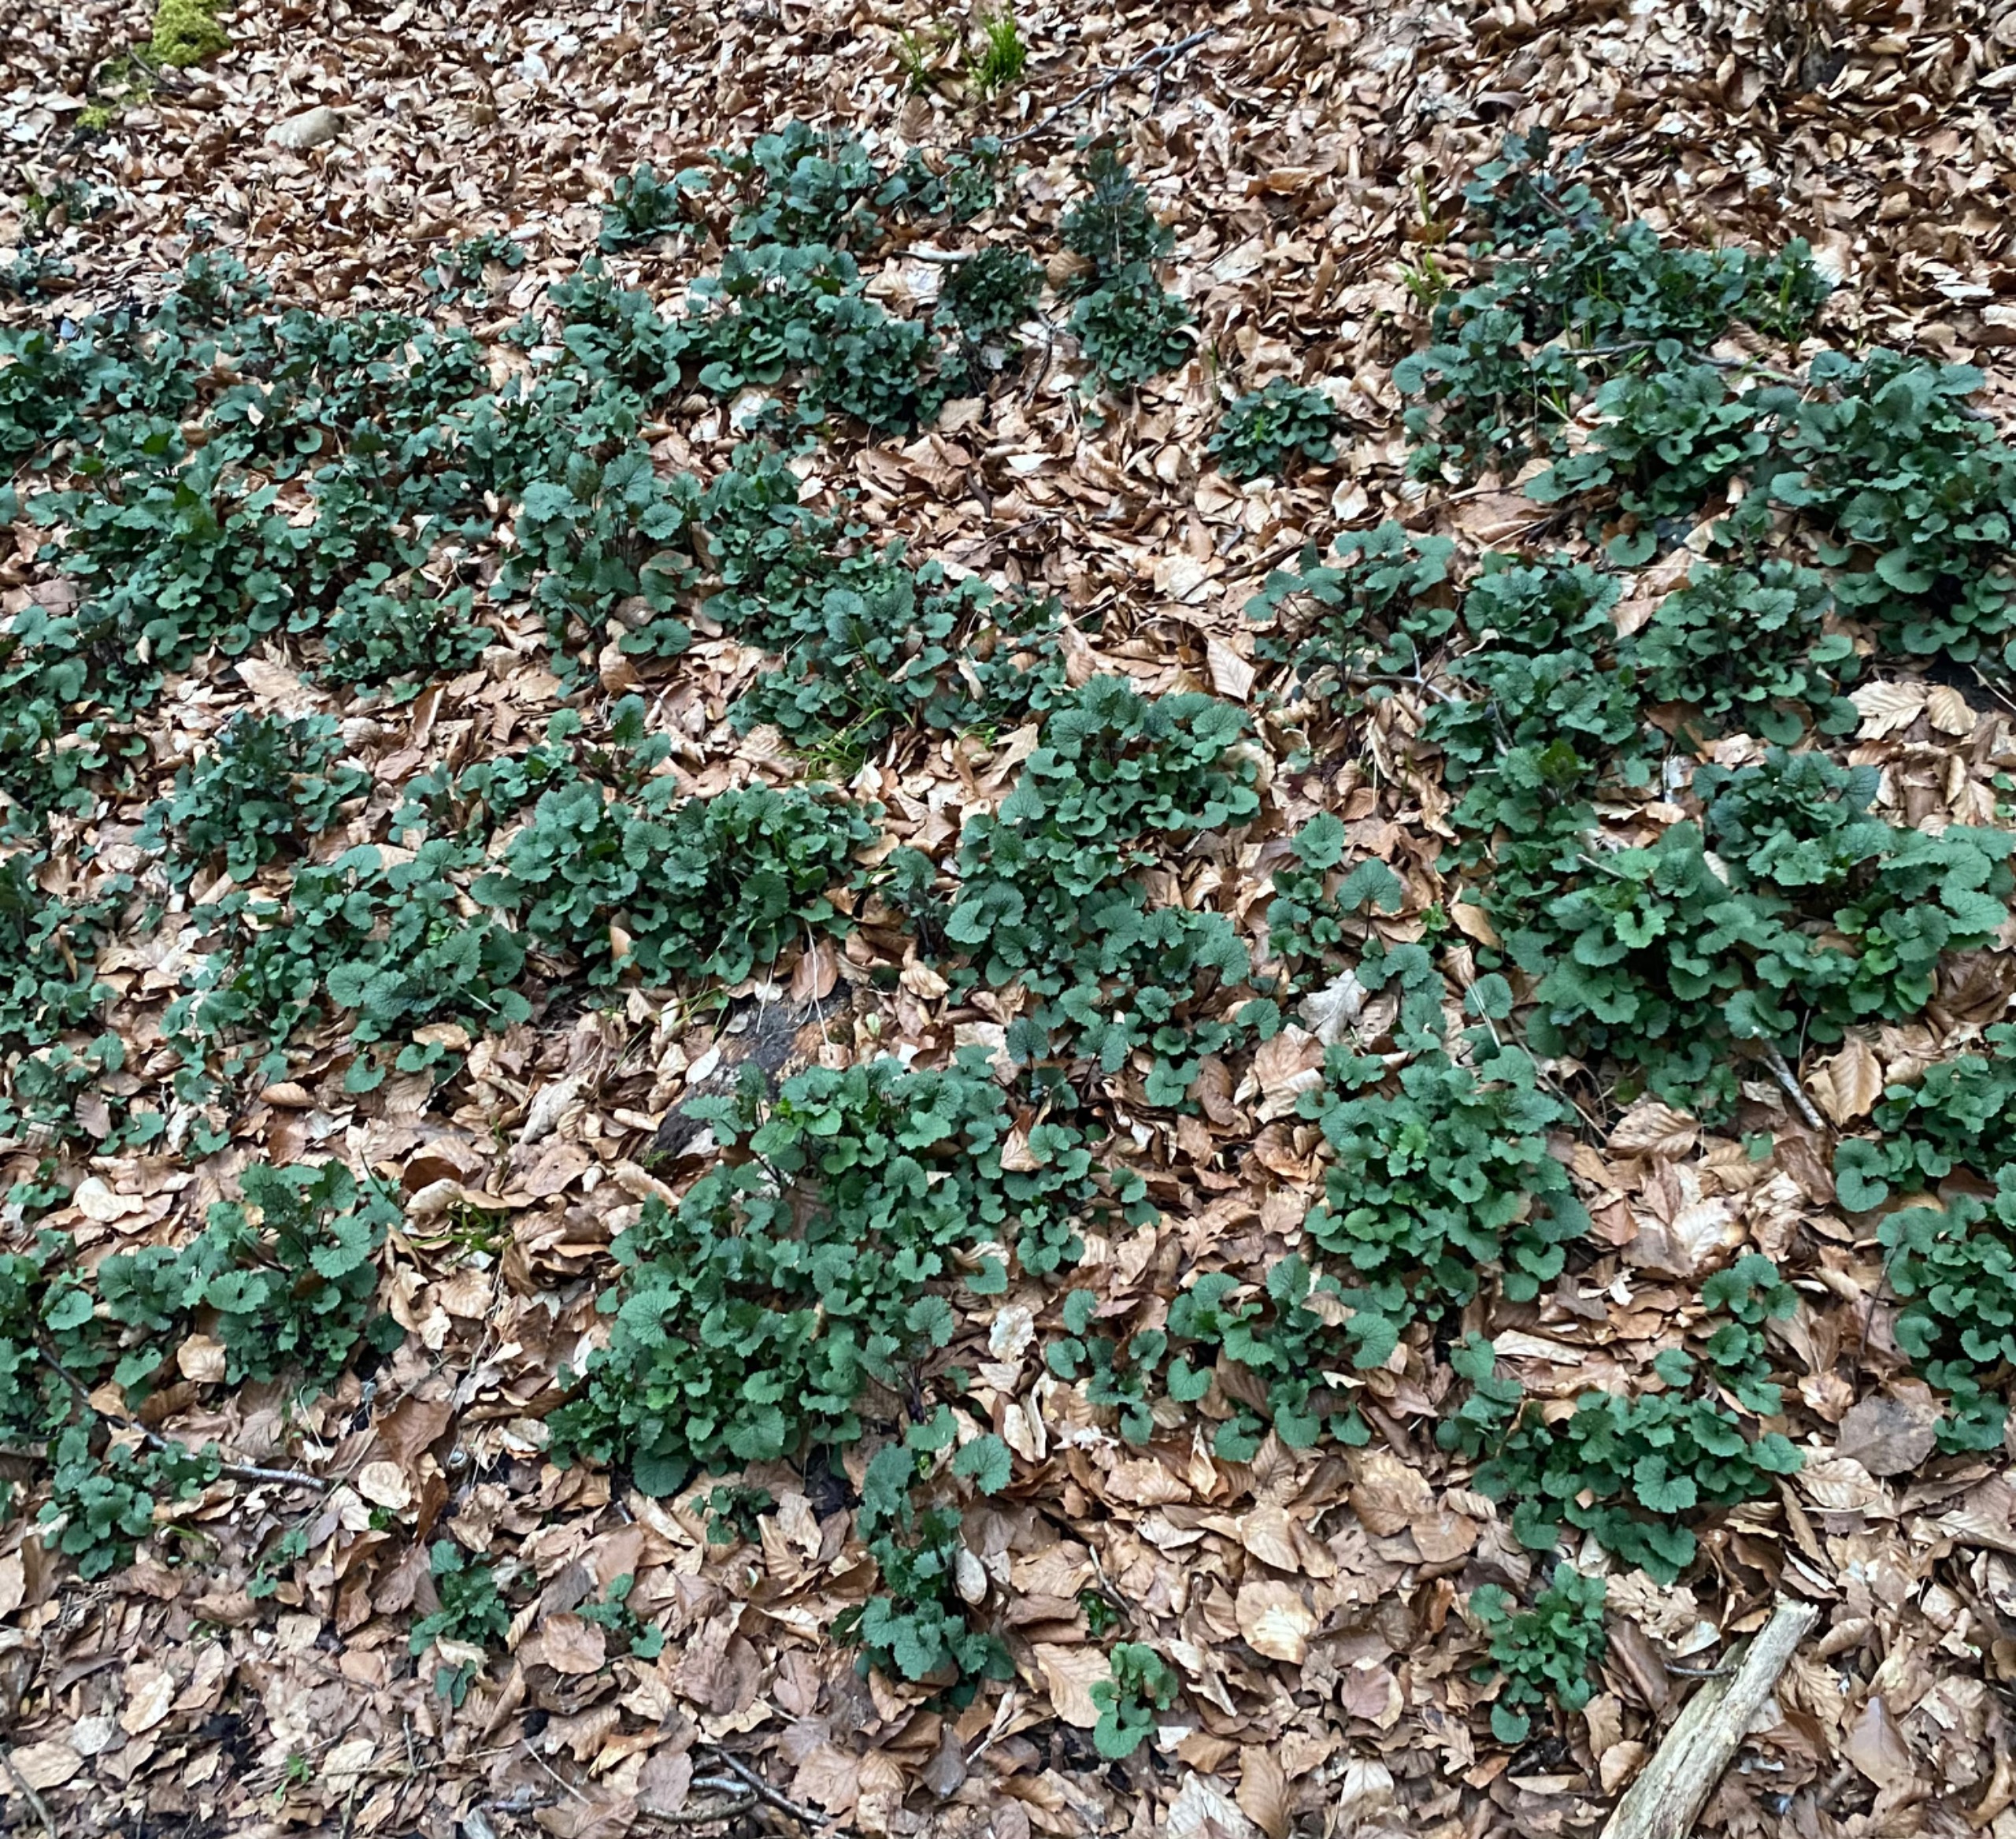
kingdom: Plantae
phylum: Tracheophyta
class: Magnoliopsida
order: Brassicales
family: Brassicaceae
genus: Alliaria
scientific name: Alliaria petiolata
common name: Løgkarse
